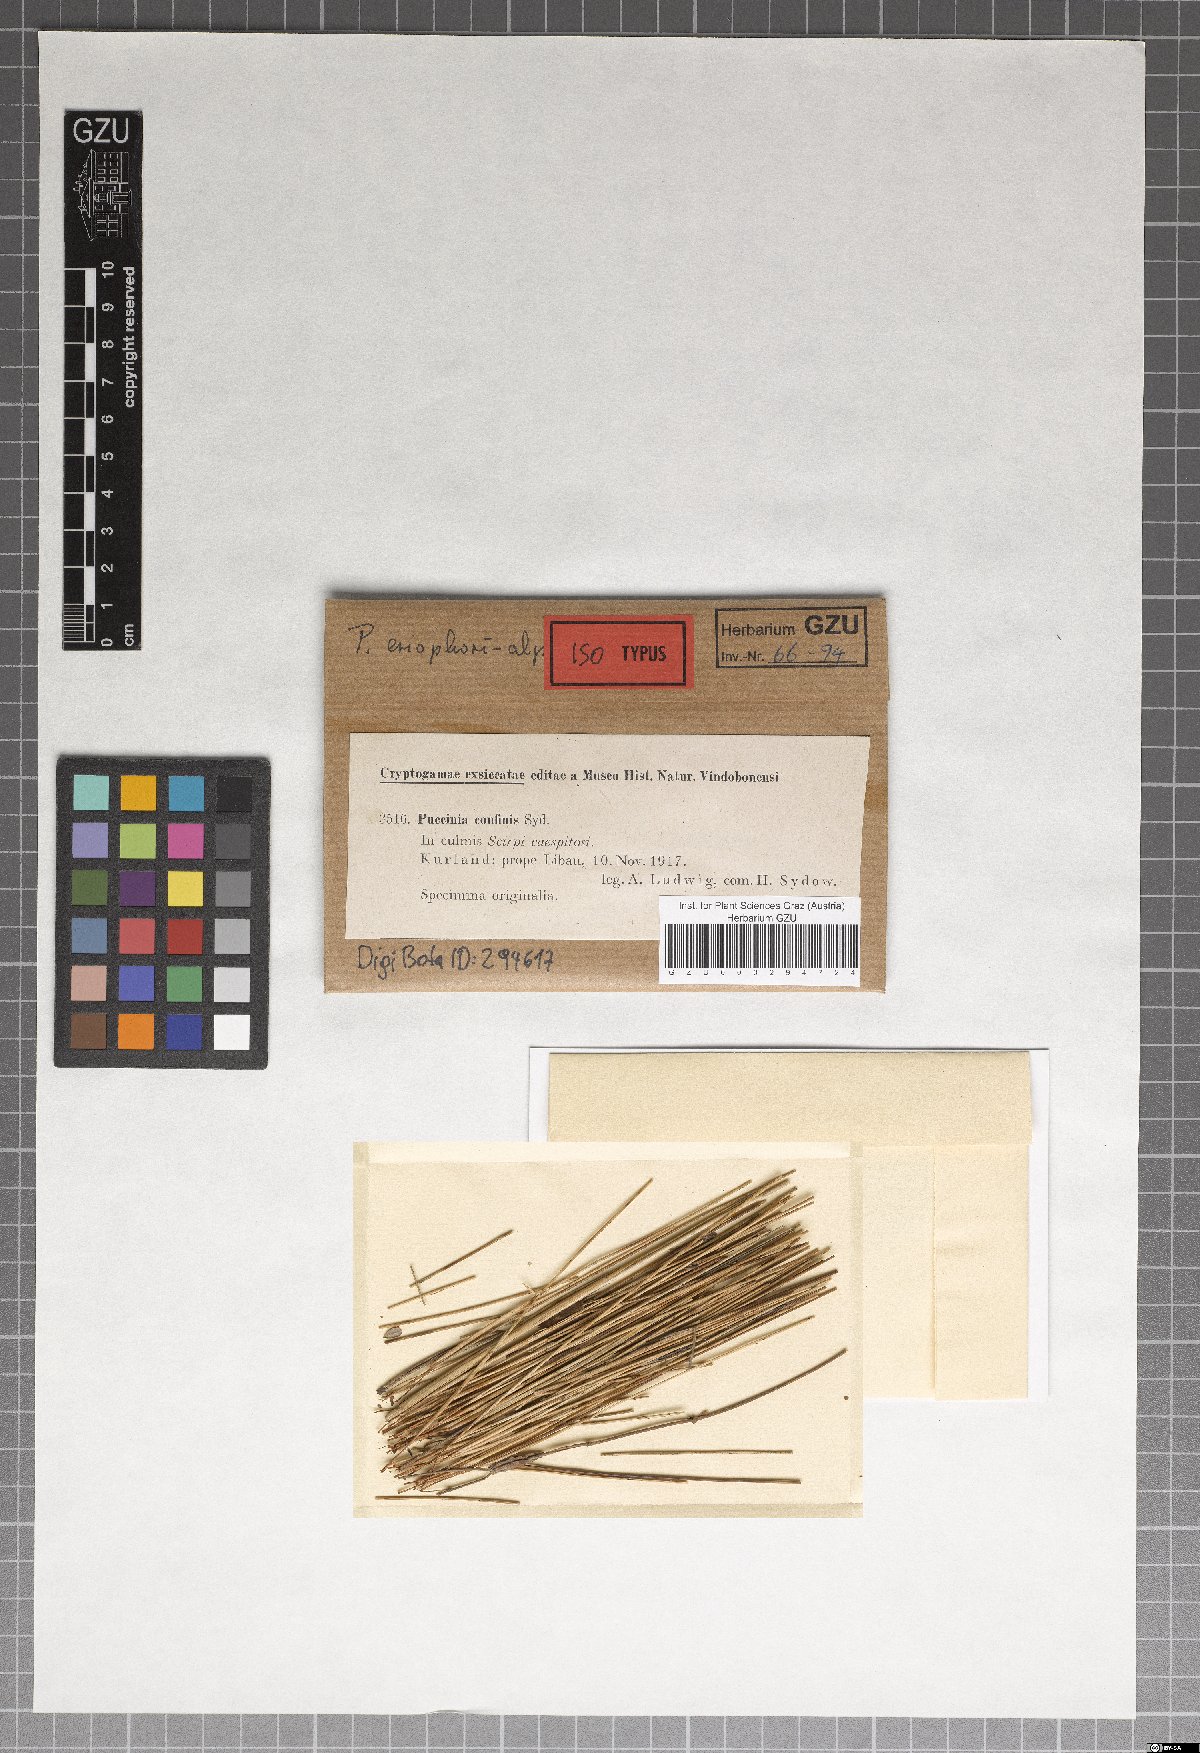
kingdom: Fungi
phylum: Basidiomycota
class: Pucciniomycetes
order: Pucciniales
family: Pucciniaceae
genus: Puccinia
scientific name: Puccinia eriophori
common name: Deer grass rust
